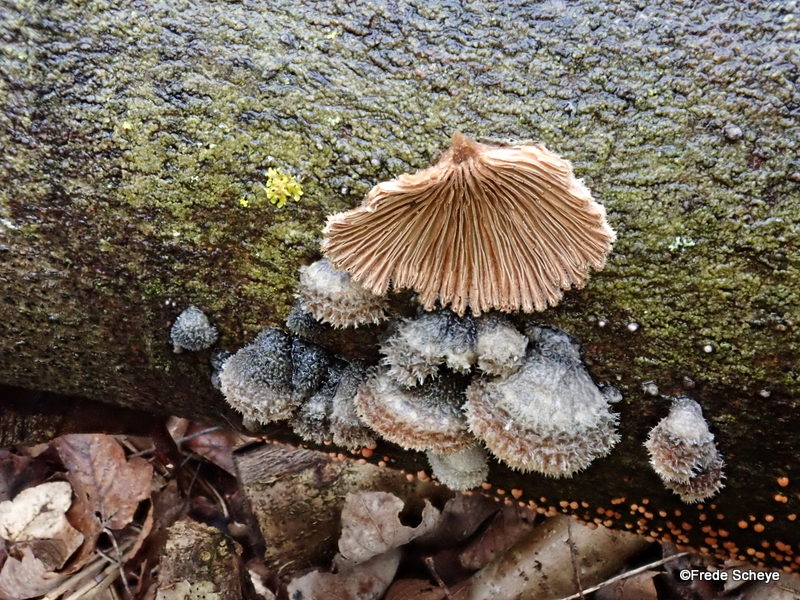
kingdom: Fungi
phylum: Basidiomycota
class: Agaricomycetes
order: Agaricales
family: Schizophyllaceae
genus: Schizophyllum
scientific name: Schizophyllum commune
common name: kløvblad
